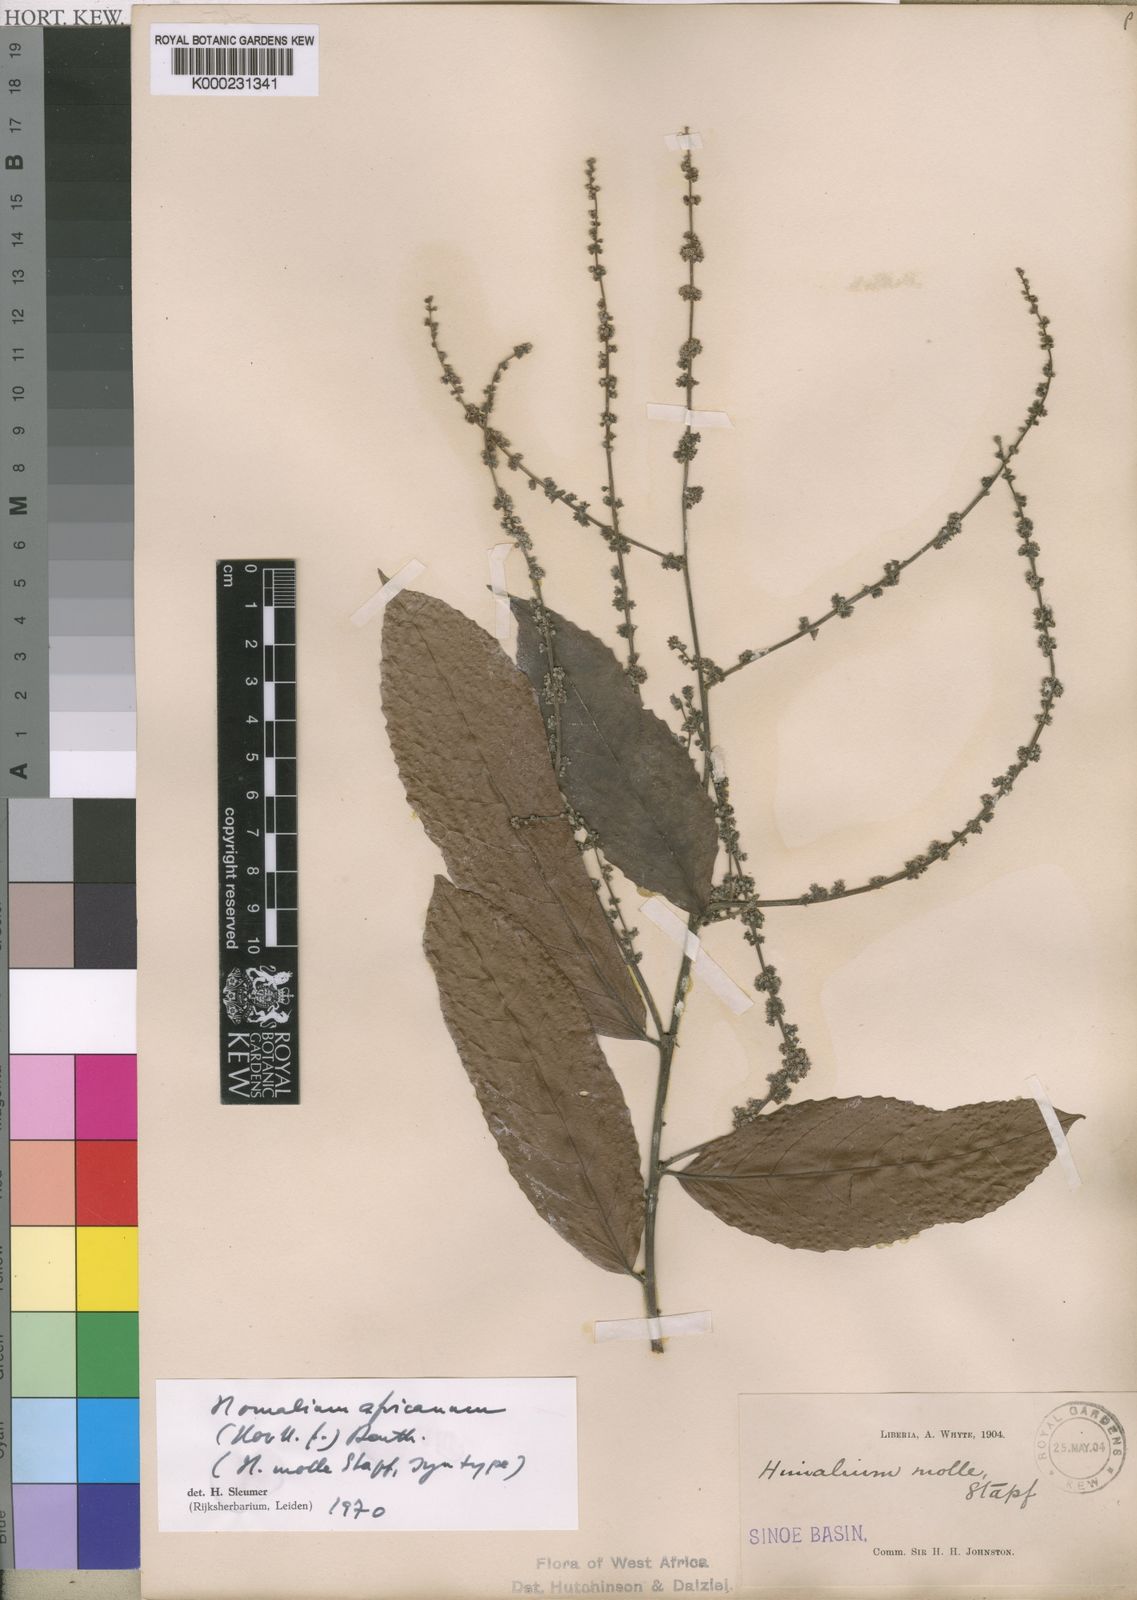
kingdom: Plantae
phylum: Tracheophyta
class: Magnoliopsida
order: Malpighiales
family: Salicaceae
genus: Homalium
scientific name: Homalium africanum
